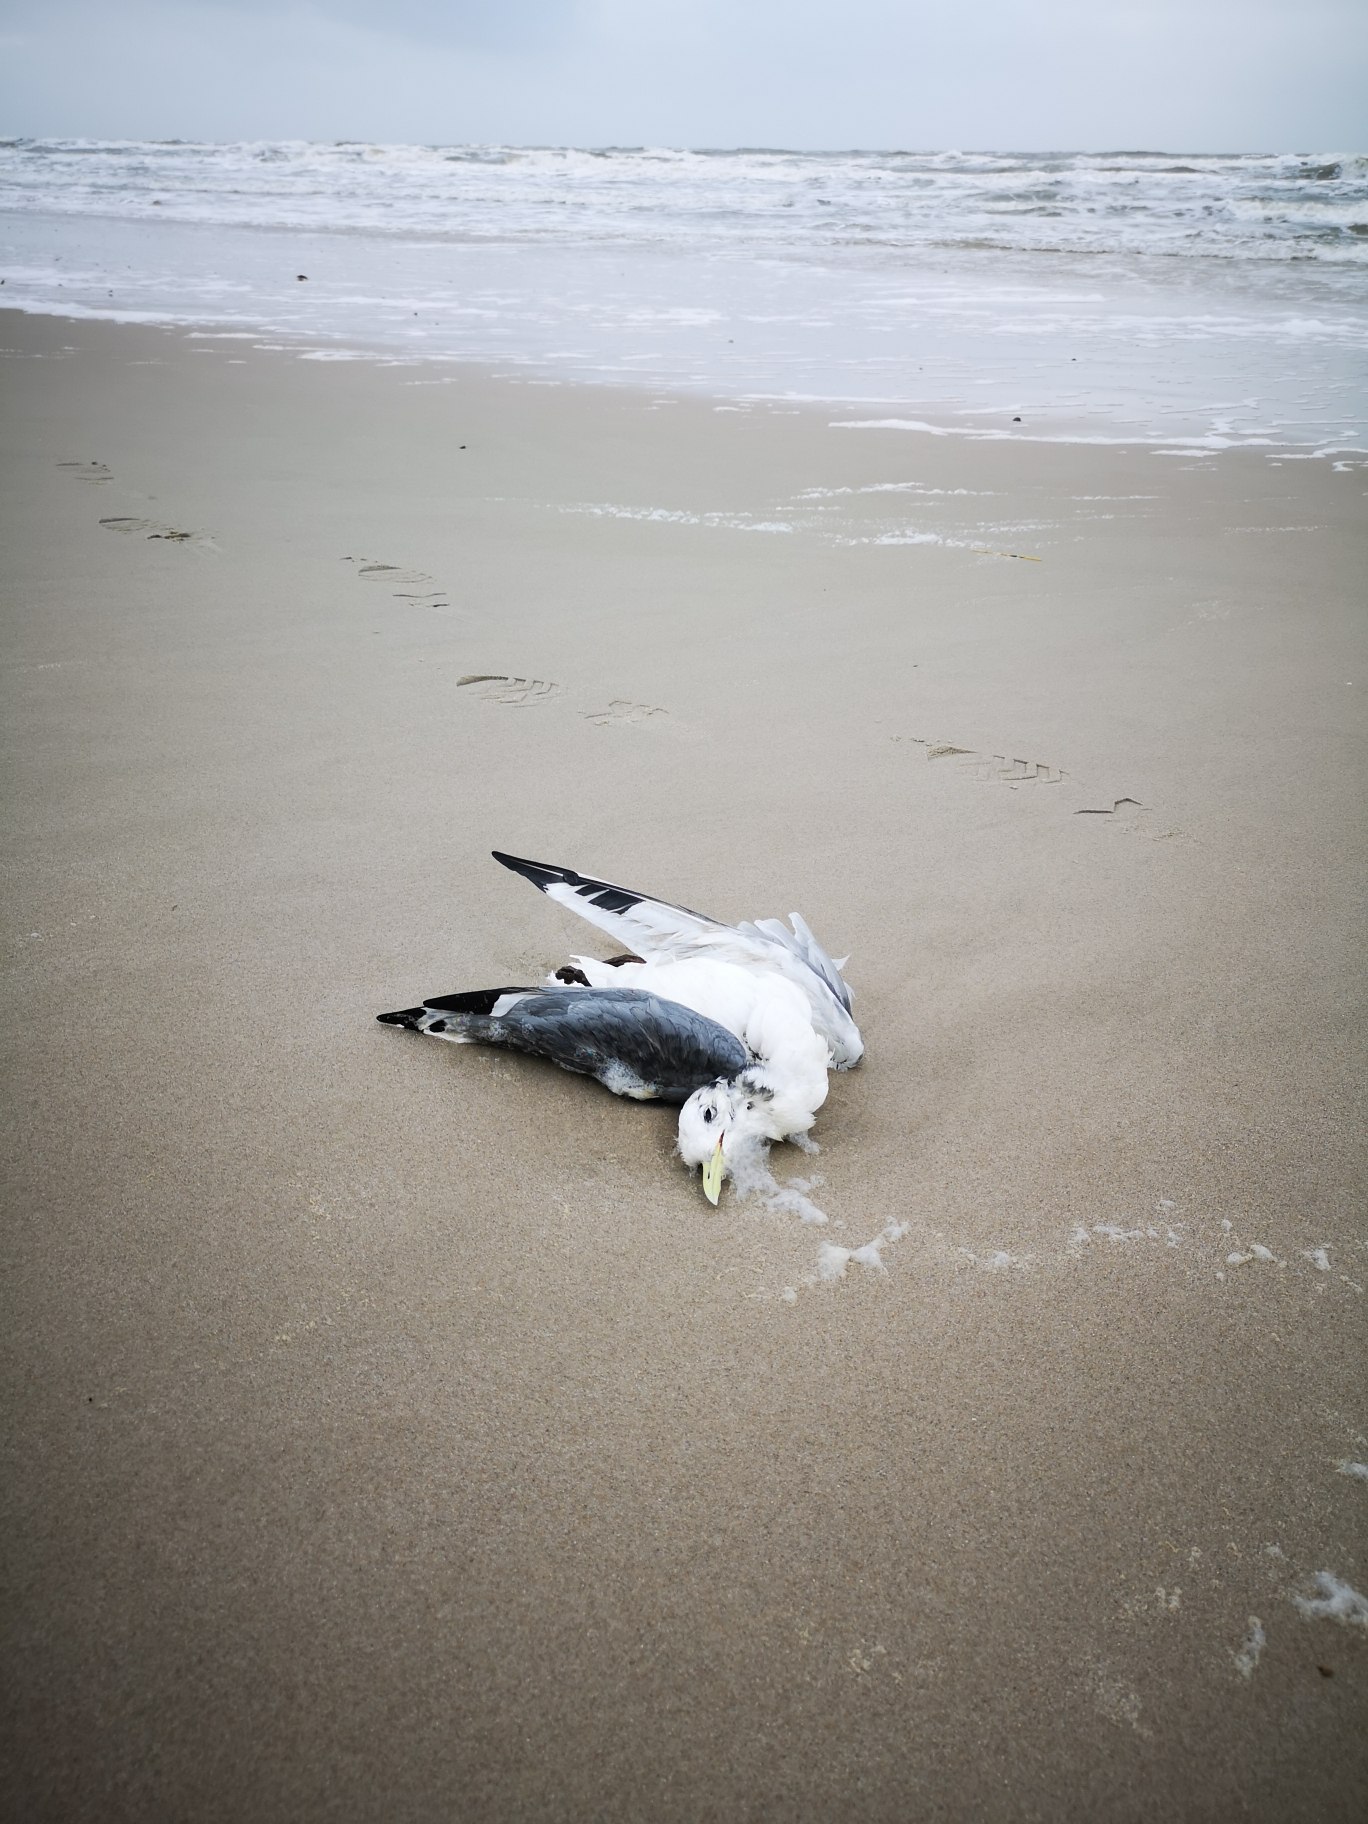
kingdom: Animalia
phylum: Chordata
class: Aves
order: Charadriiformes
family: Laridae
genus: Rissa
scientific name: Rissa tridactyla
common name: Ride
